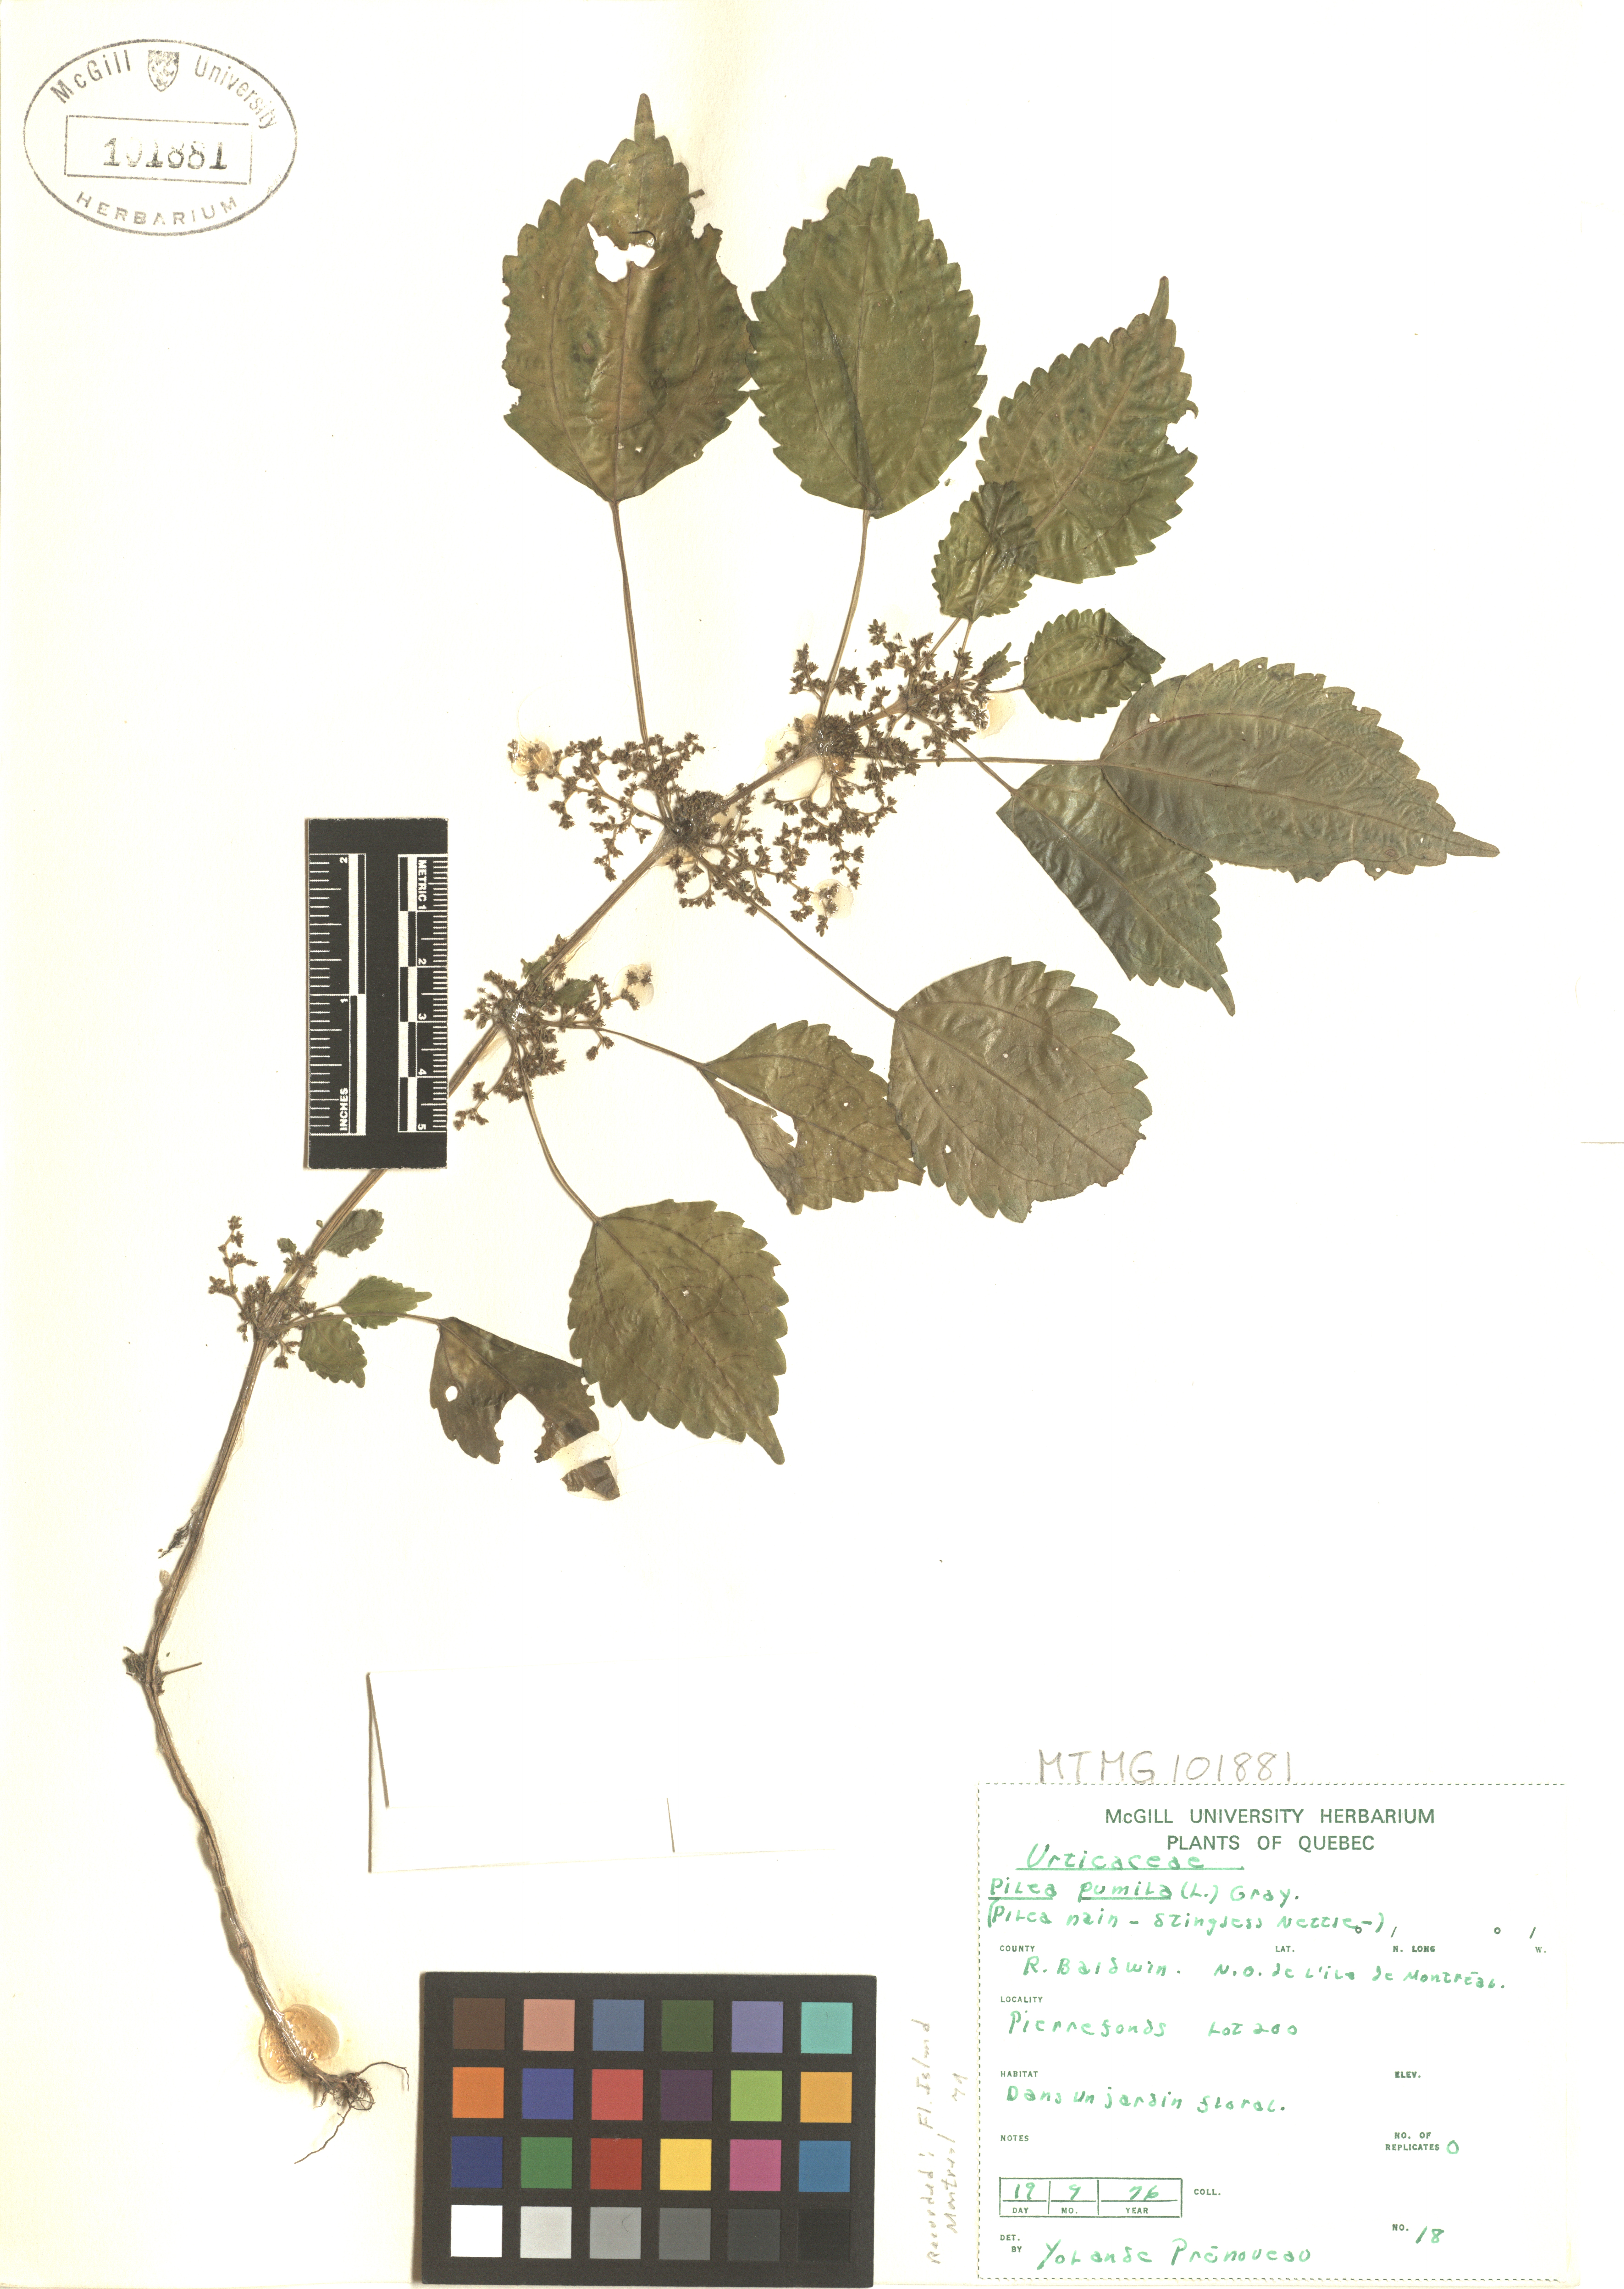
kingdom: Plantae
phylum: Tracheophyta
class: Magnoliopsida
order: Rosales
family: Urticaceae
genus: Pilea
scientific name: Pilea pumila
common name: Clearweed
